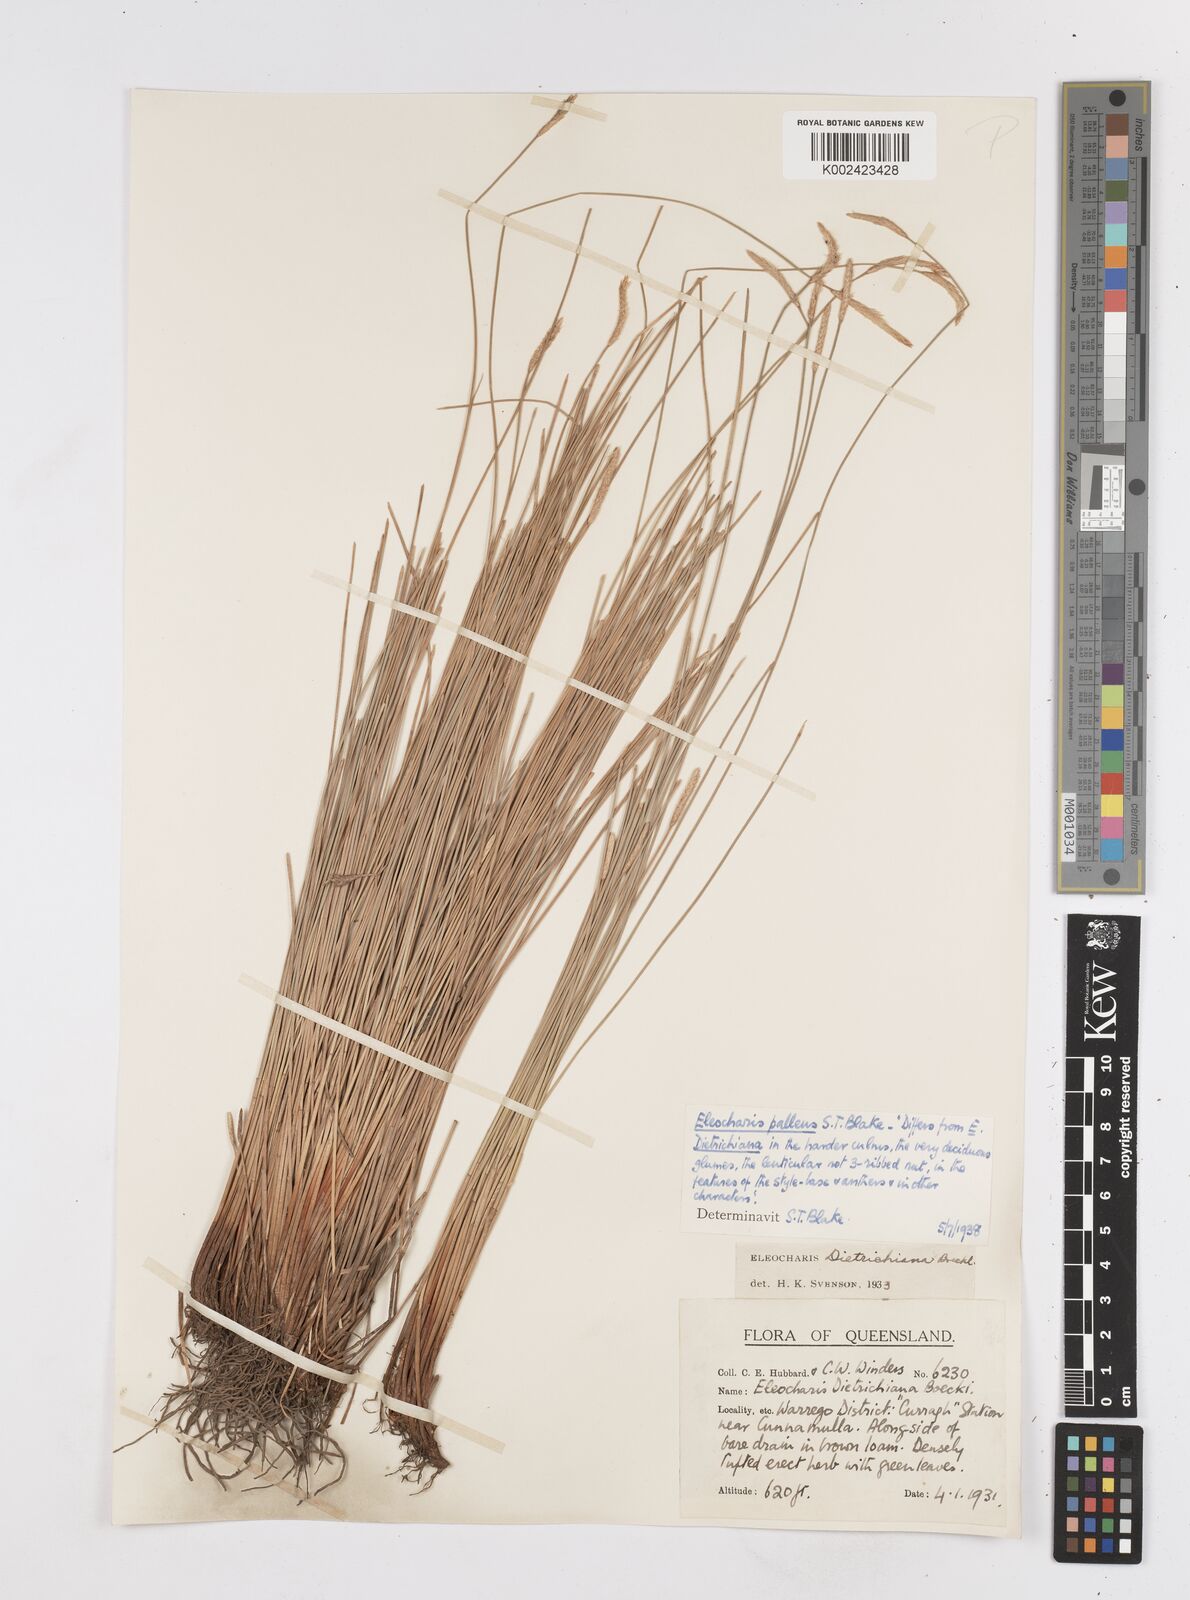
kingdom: Plantae
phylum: Tracheophyta
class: Liliopsida
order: Poales
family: Cyperaceae
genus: Eleocharis
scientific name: Eleocharis acuta
